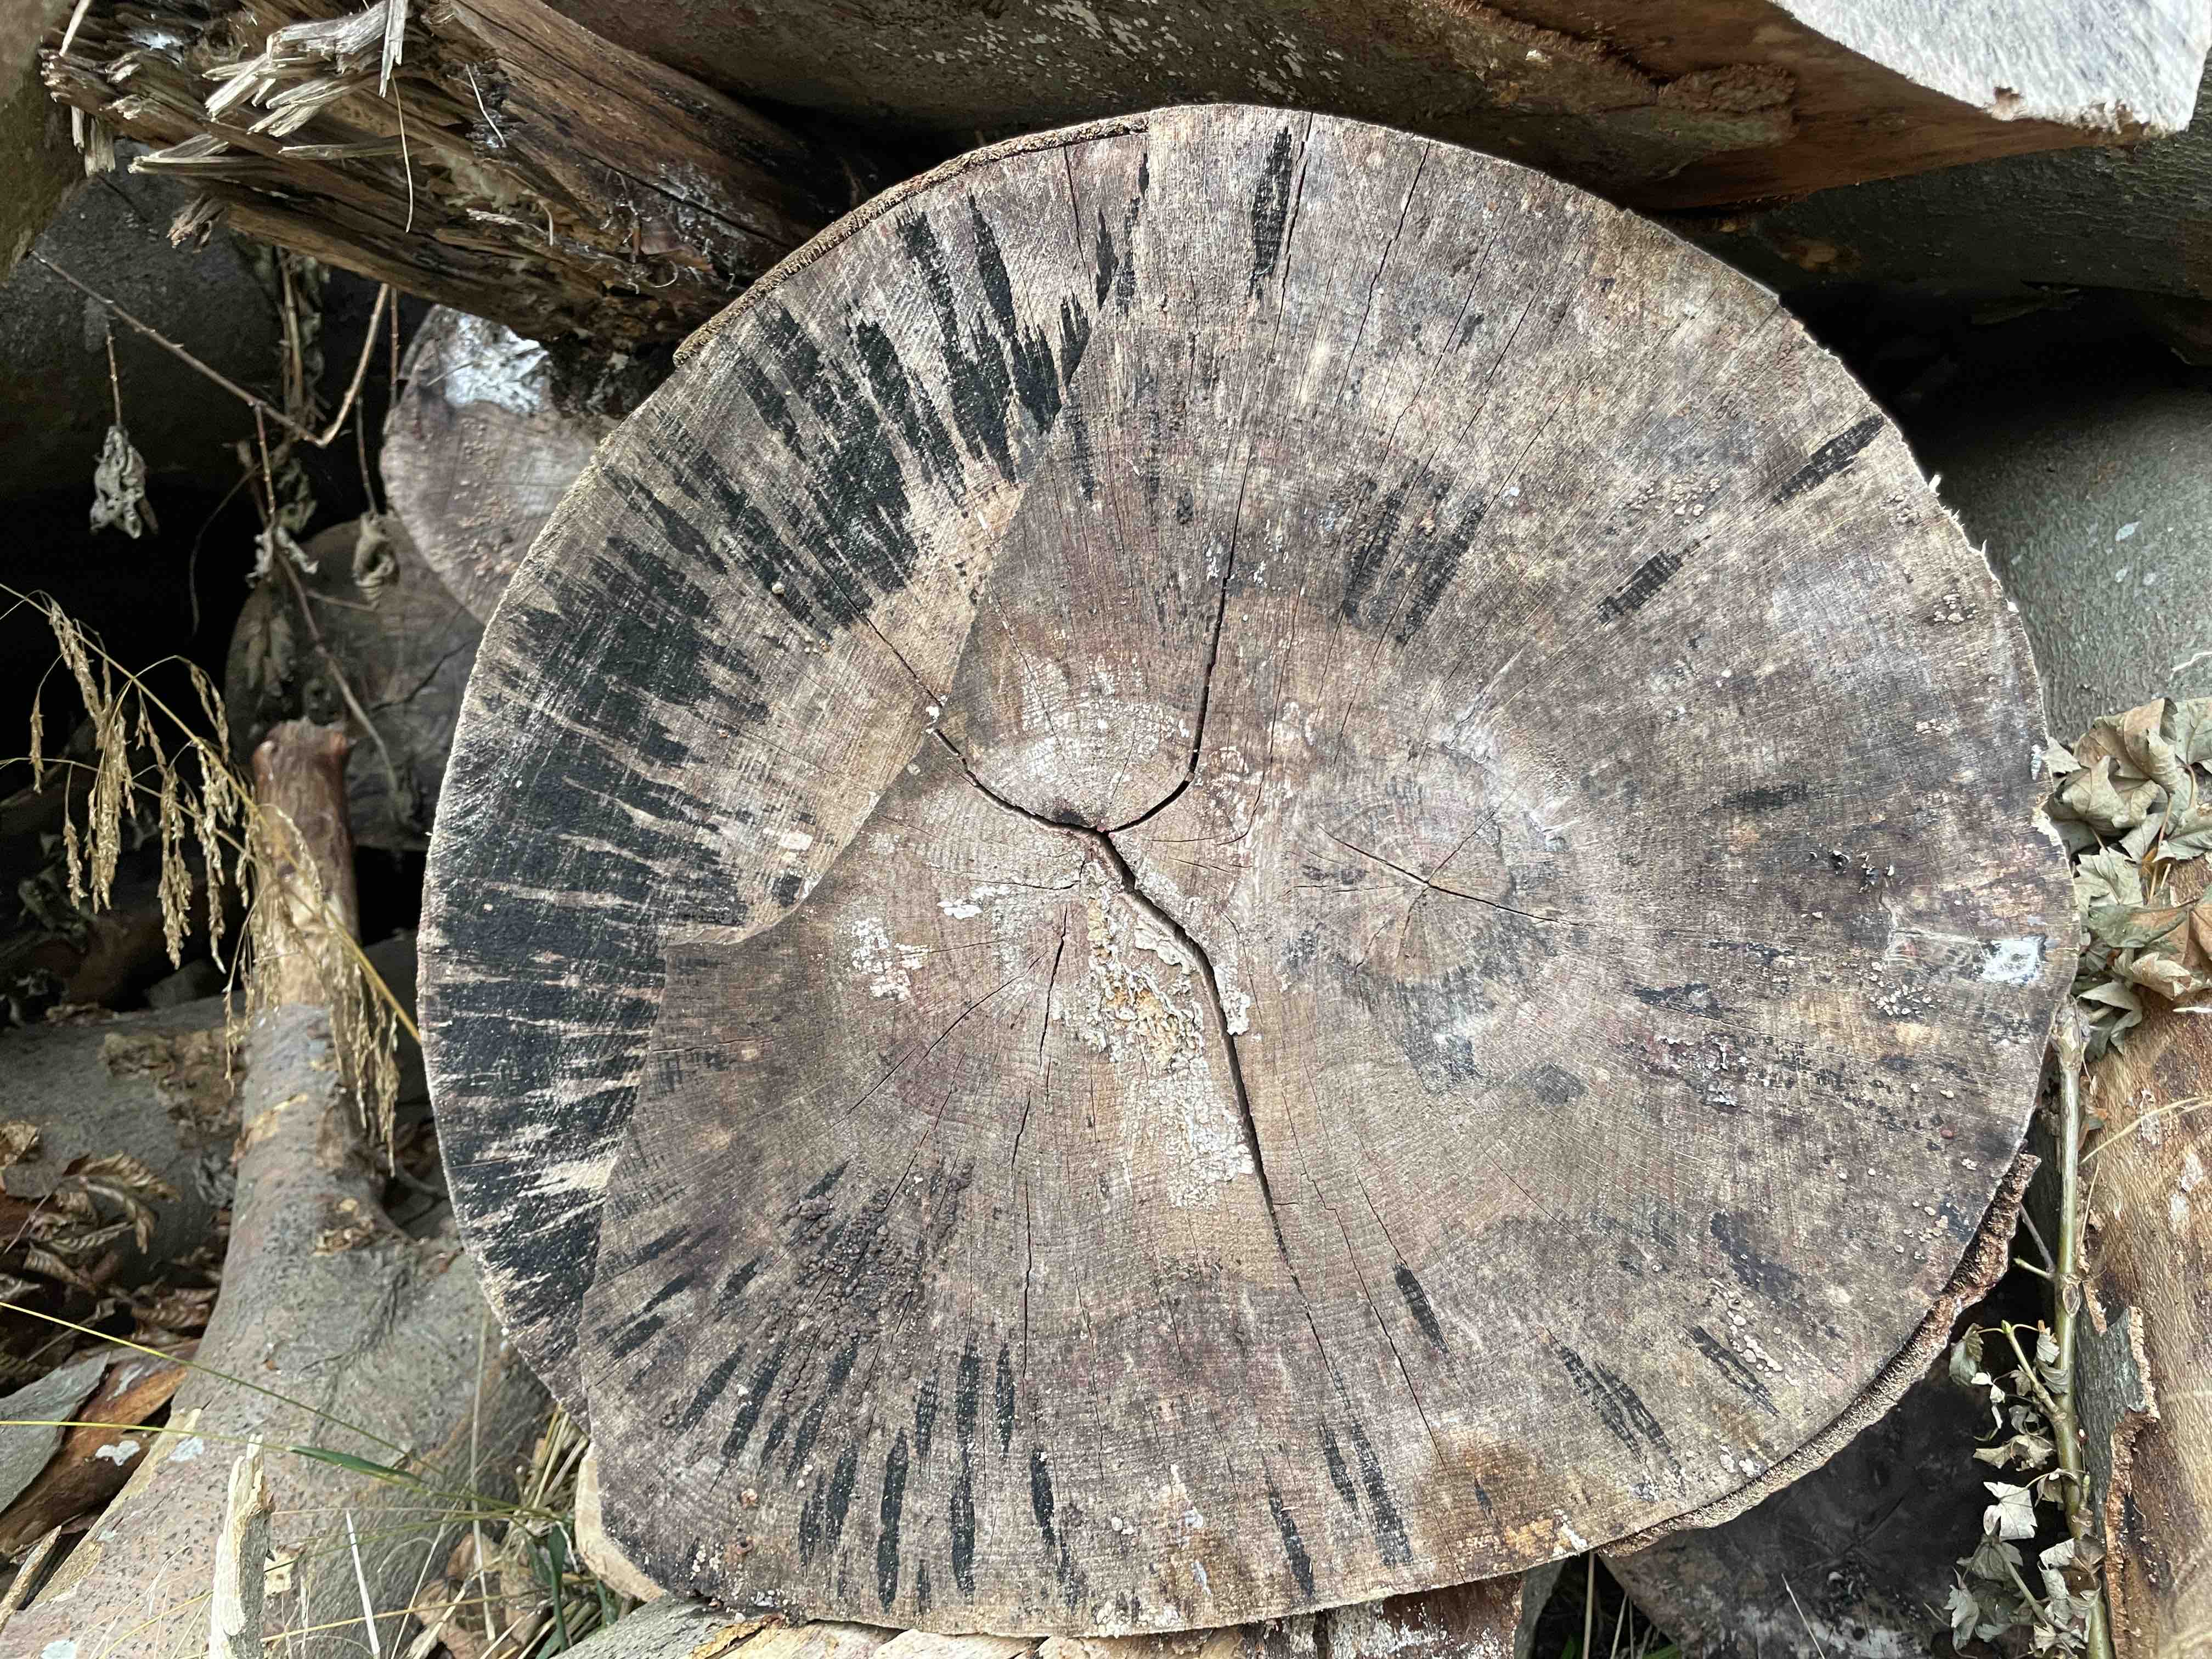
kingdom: Fungi
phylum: Ascomycota
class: Leotiomycetes
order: Helotiales
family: Helotiaceae
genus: Bispora
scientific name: Bispora pallescens
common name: måtte-snitskive
